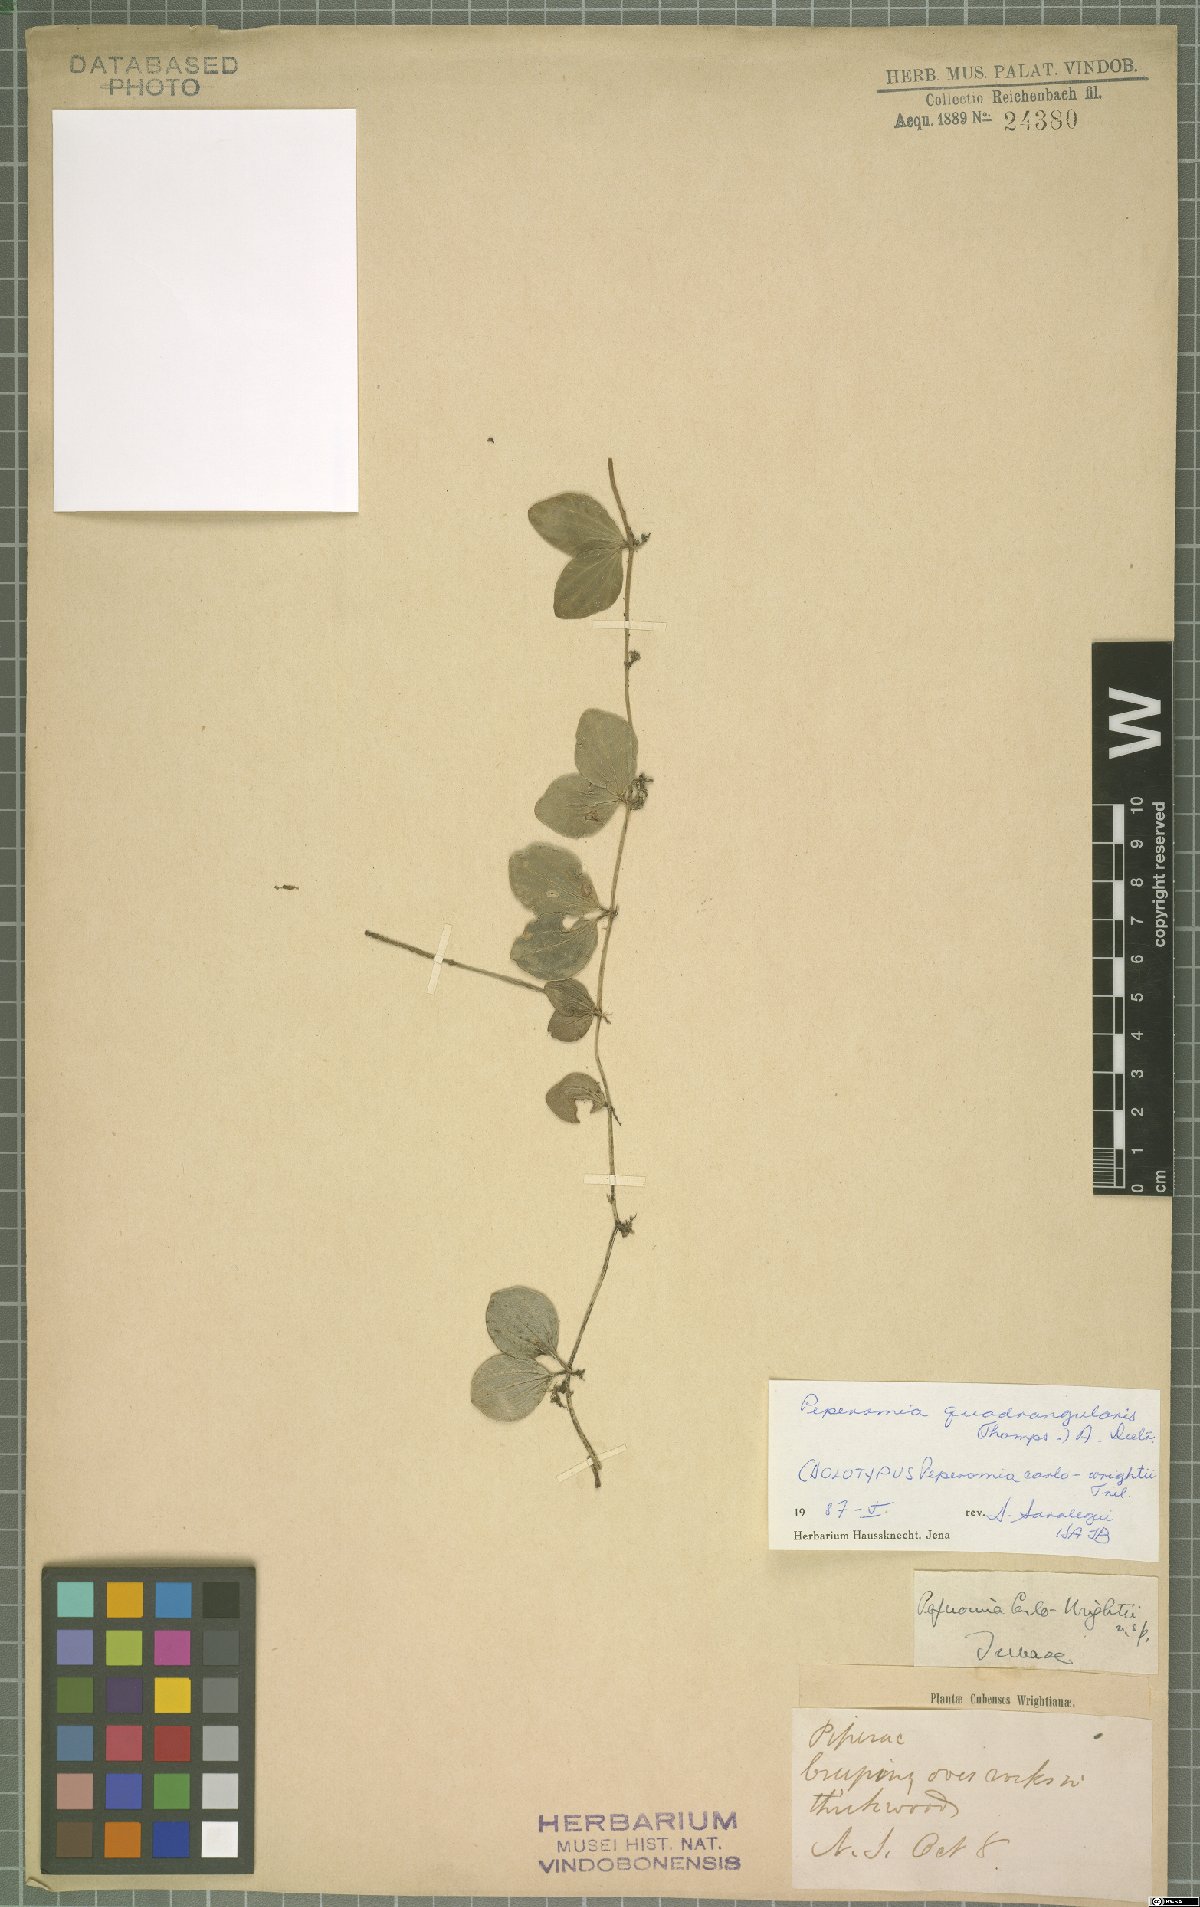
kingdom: Plantae
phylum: Tracheophyta
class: Magnoliopsida
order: Piperales
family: Piperaceae
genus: Peperomia
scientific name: Peperomia quadrangularis
